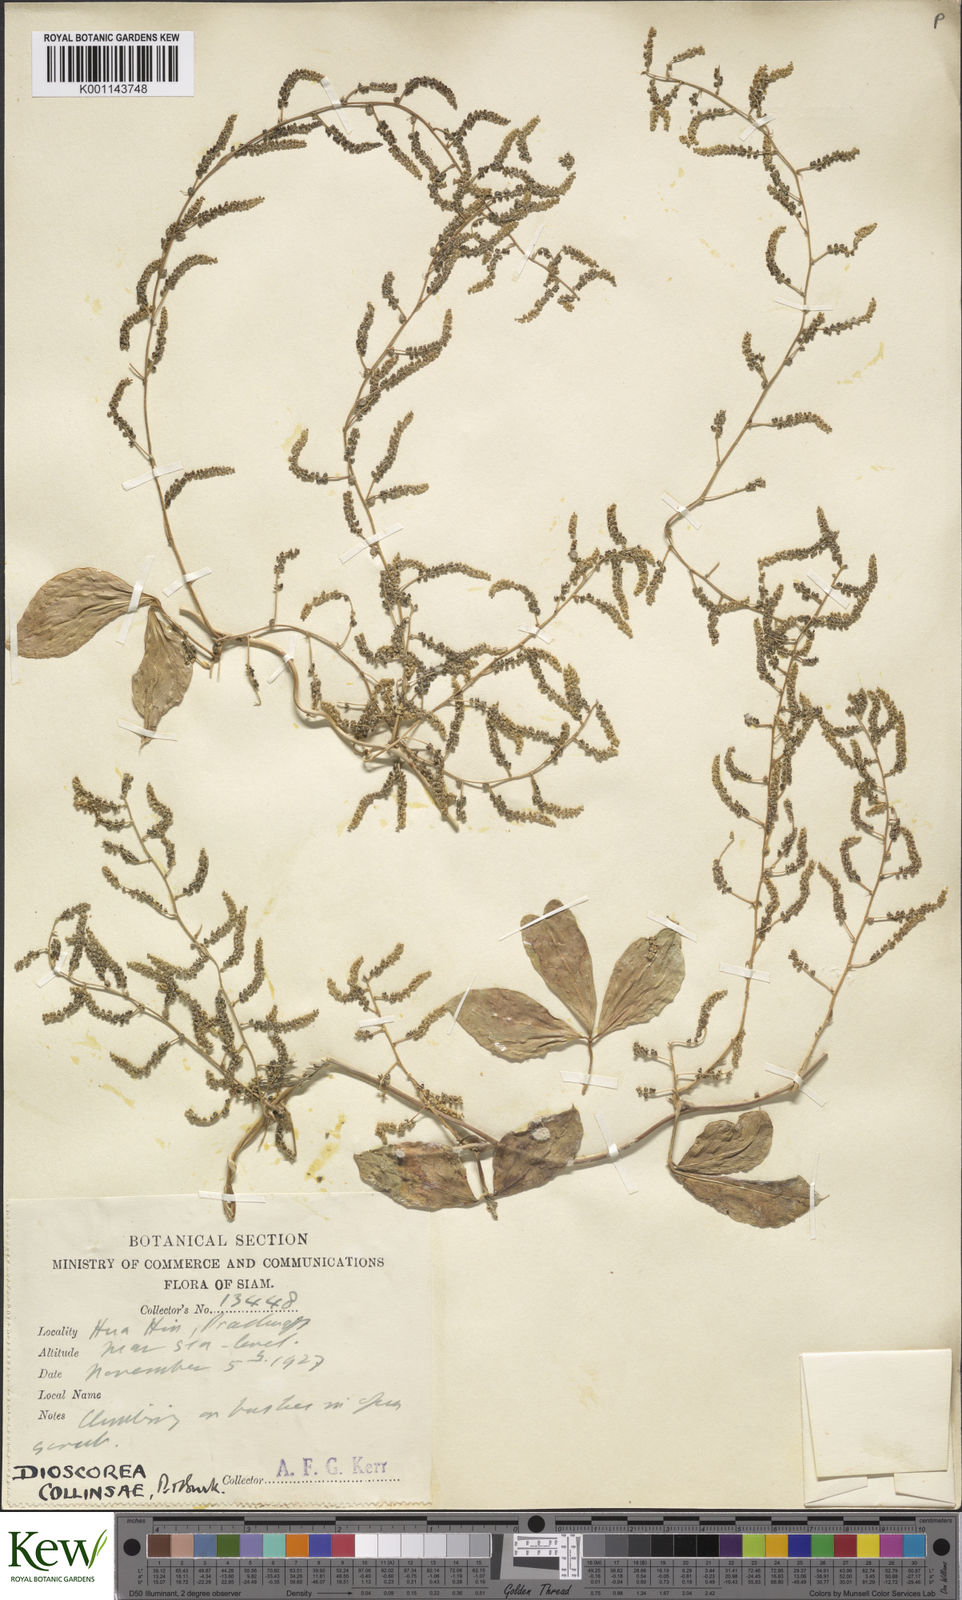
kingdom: Plantae
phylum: Tracheophyta
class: Liliopsida
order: Dioscoreales
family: Dioscoreaceae
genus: Dioscorea
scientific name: Dioscorea arachidna
